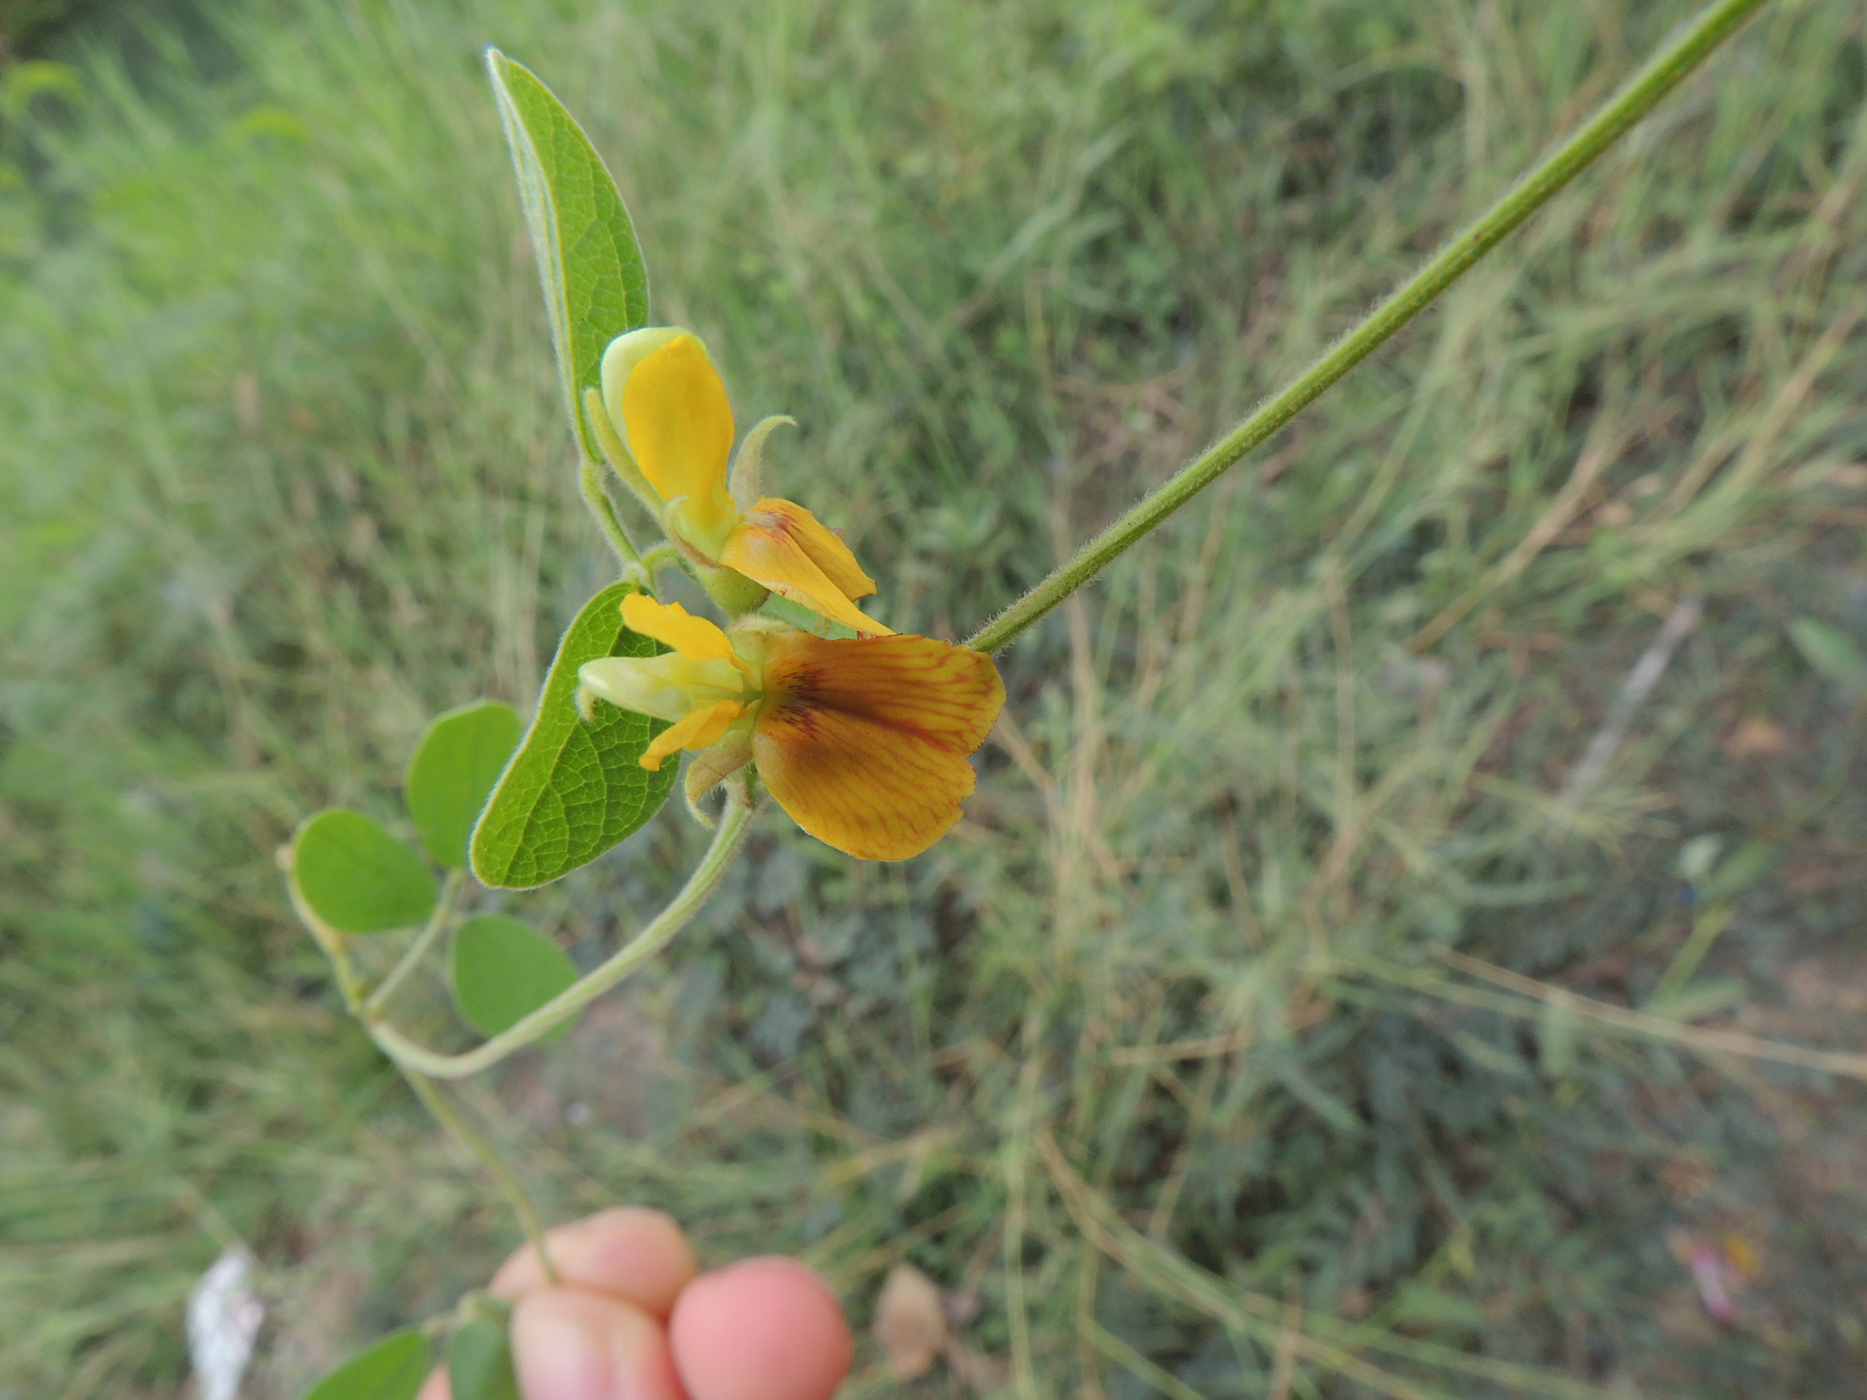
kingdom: Plantae
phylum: Tracheophyta
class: Magnoliopsida
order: Fabales
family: Fabaceae
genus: Cajanus
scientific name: Cajanus scarabaeoides
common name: Showy pigeonpea
